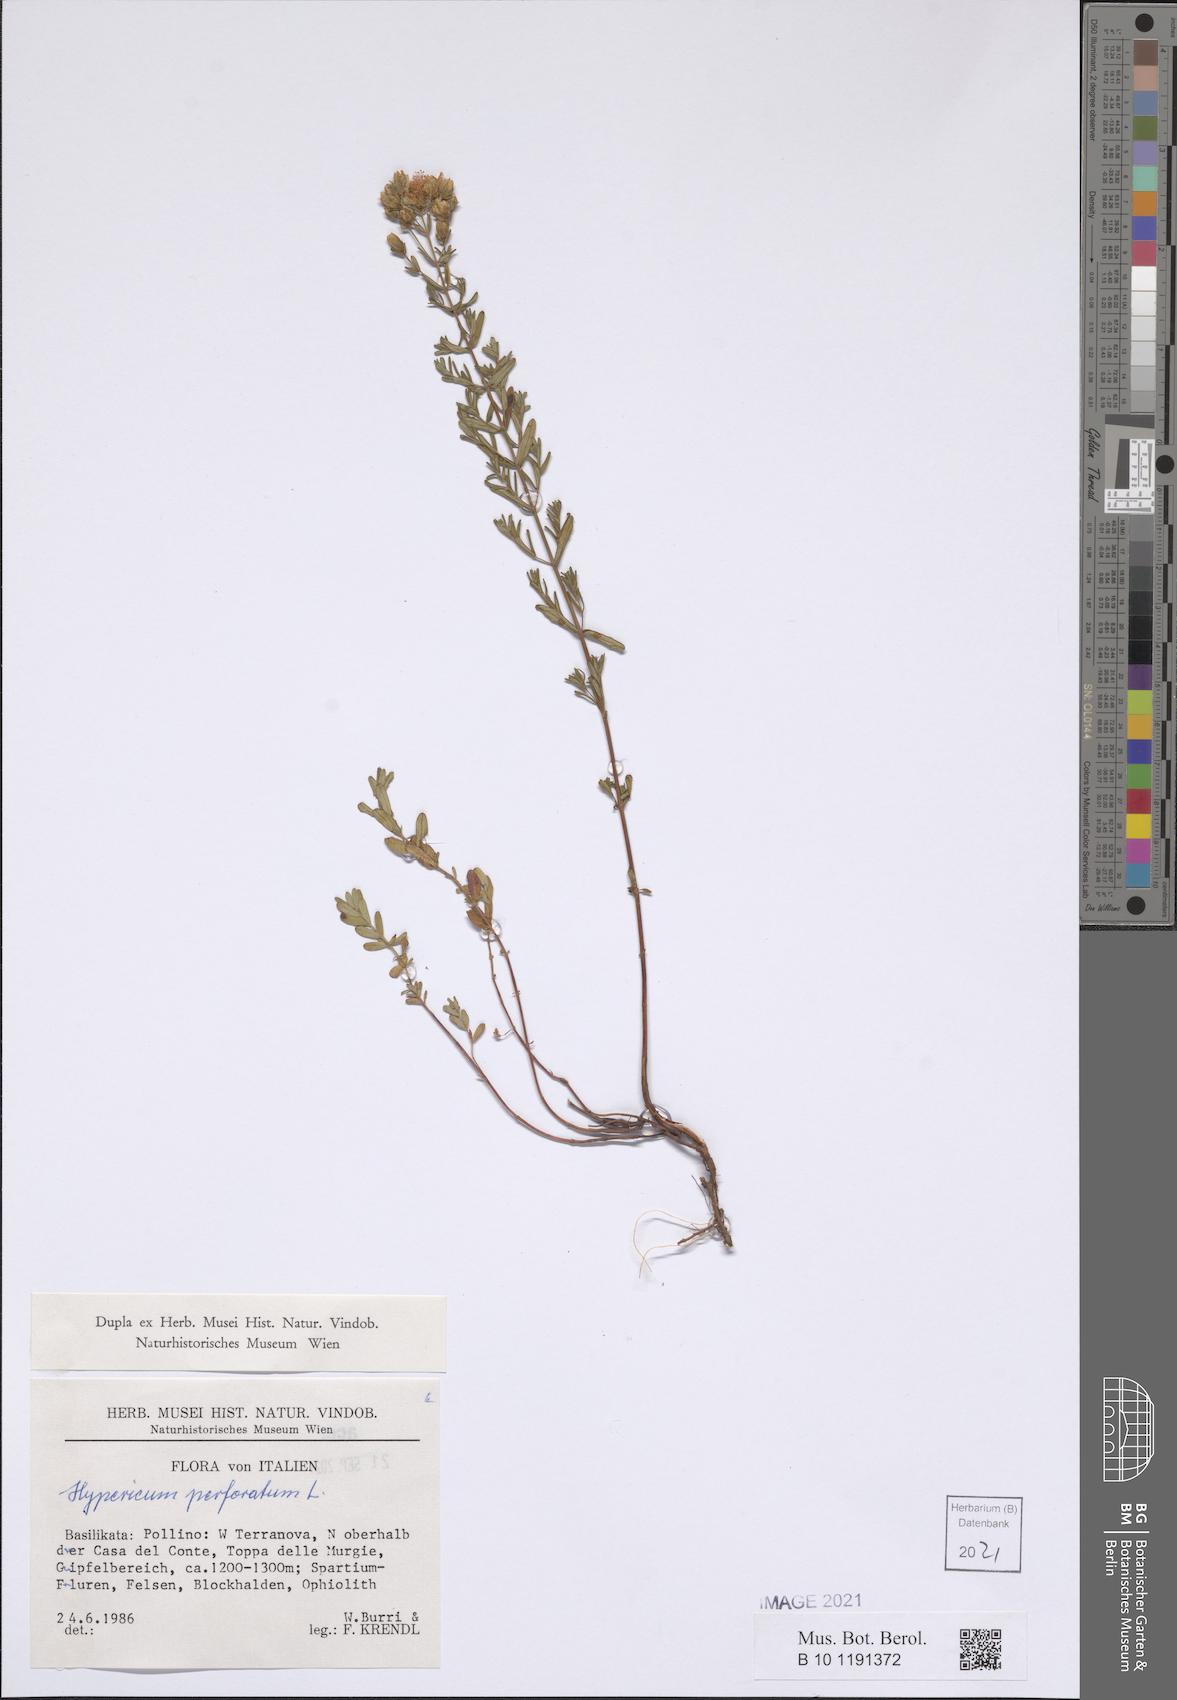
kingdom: Plantae
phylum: Tracheophyta
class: Magnoliopsida
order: Malpighiales
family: Hypericaceae
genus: Hypericum
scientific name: Hypericum perforatum
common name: Common st. johnswort
